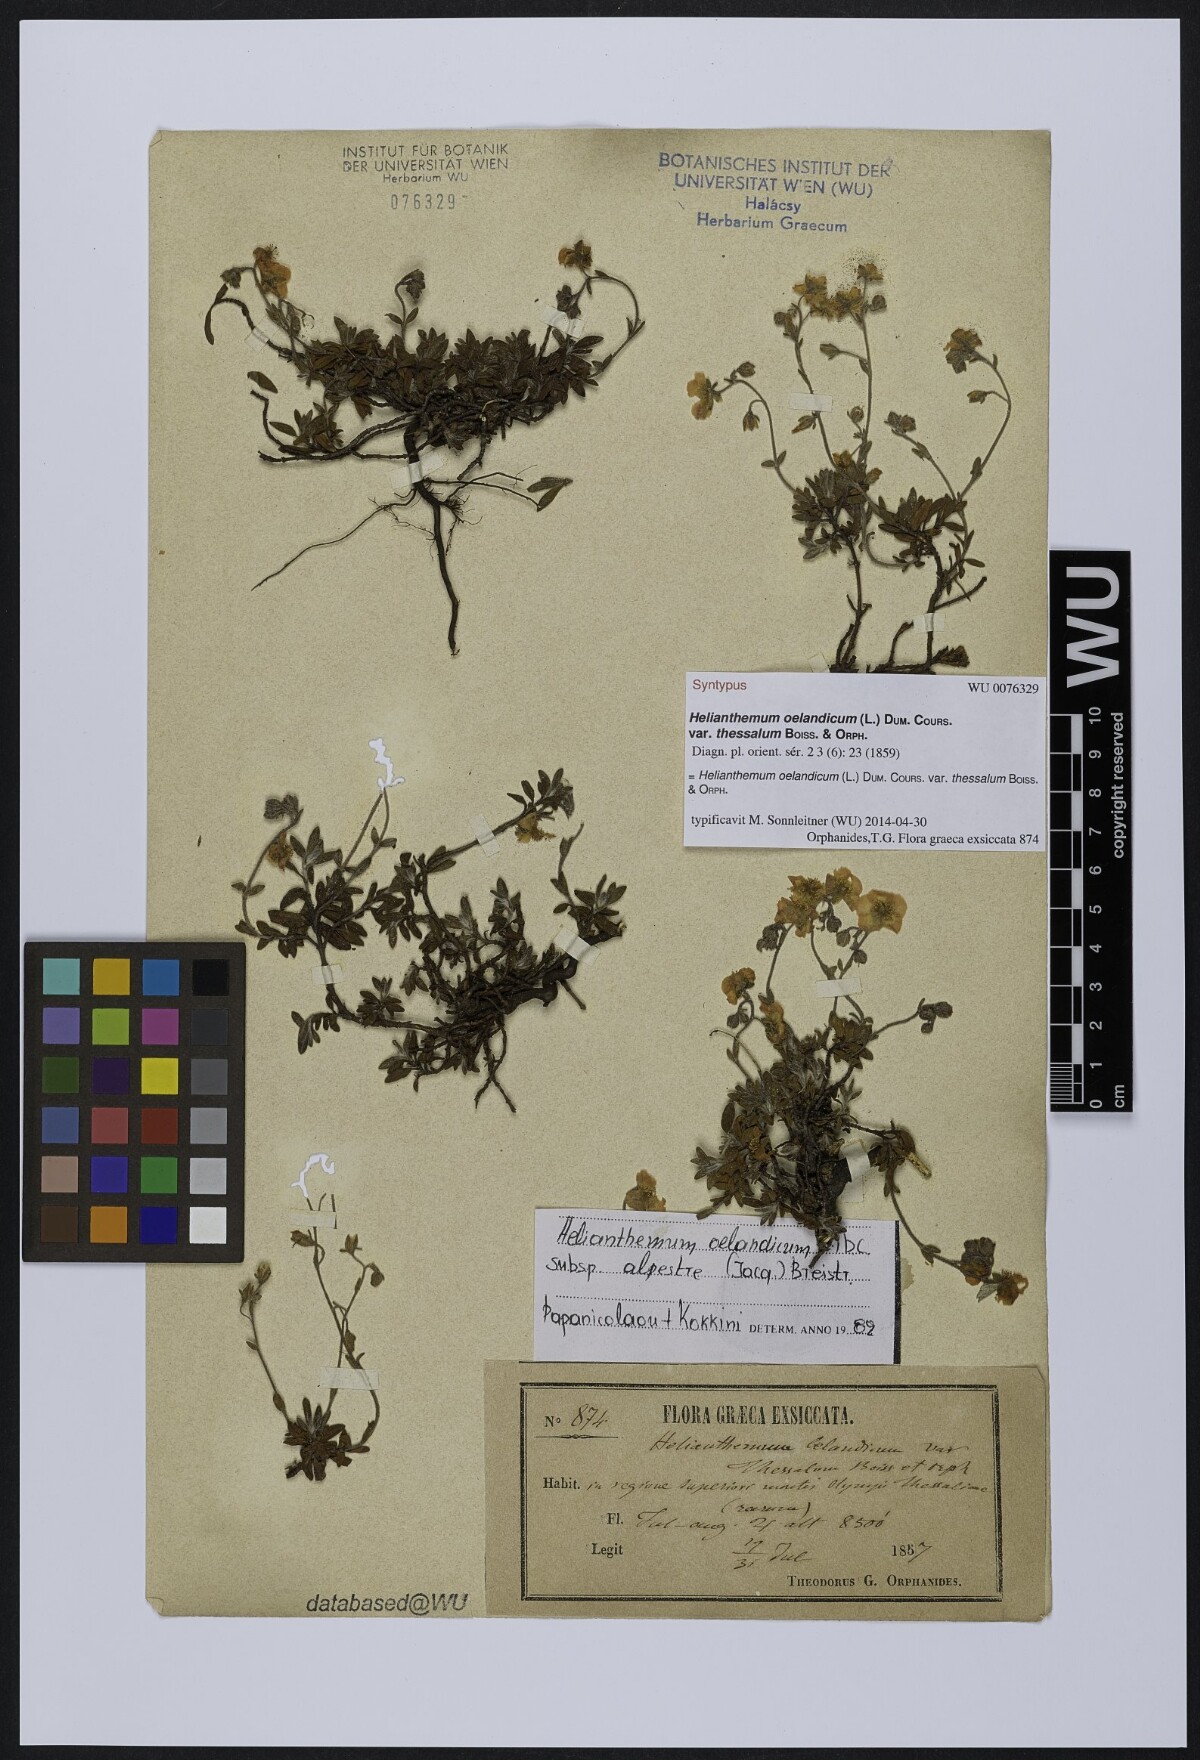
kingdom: Plantae
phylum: Tracheophyta
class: Magnoliopsida
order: Malvales
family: Cistaceae
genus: Helianthemum
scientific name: Helianthemum alpestre
